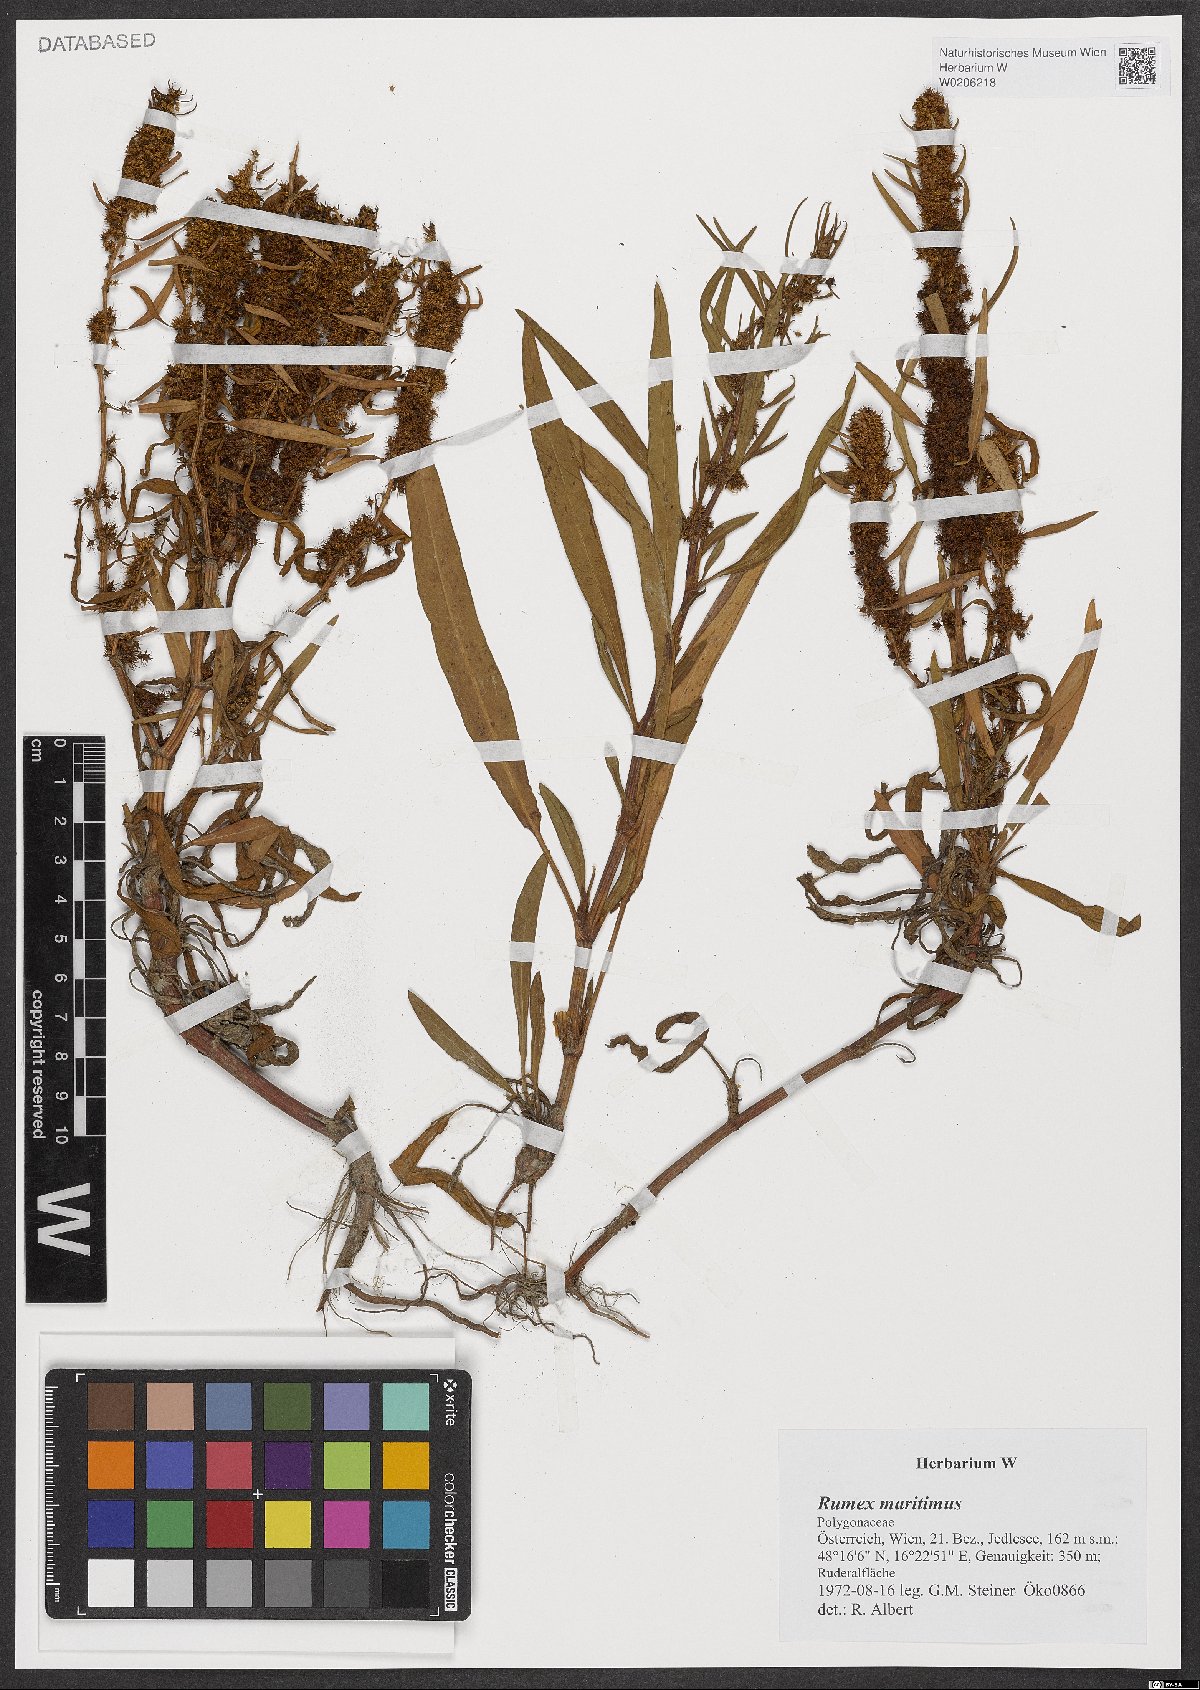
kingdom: Plantae
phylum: Tracheophyta
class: Magnoliopsida
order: Caryophyllales
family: Polygonaceae
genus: Rumex
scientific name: Rumex maritimus
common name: Golden dock
